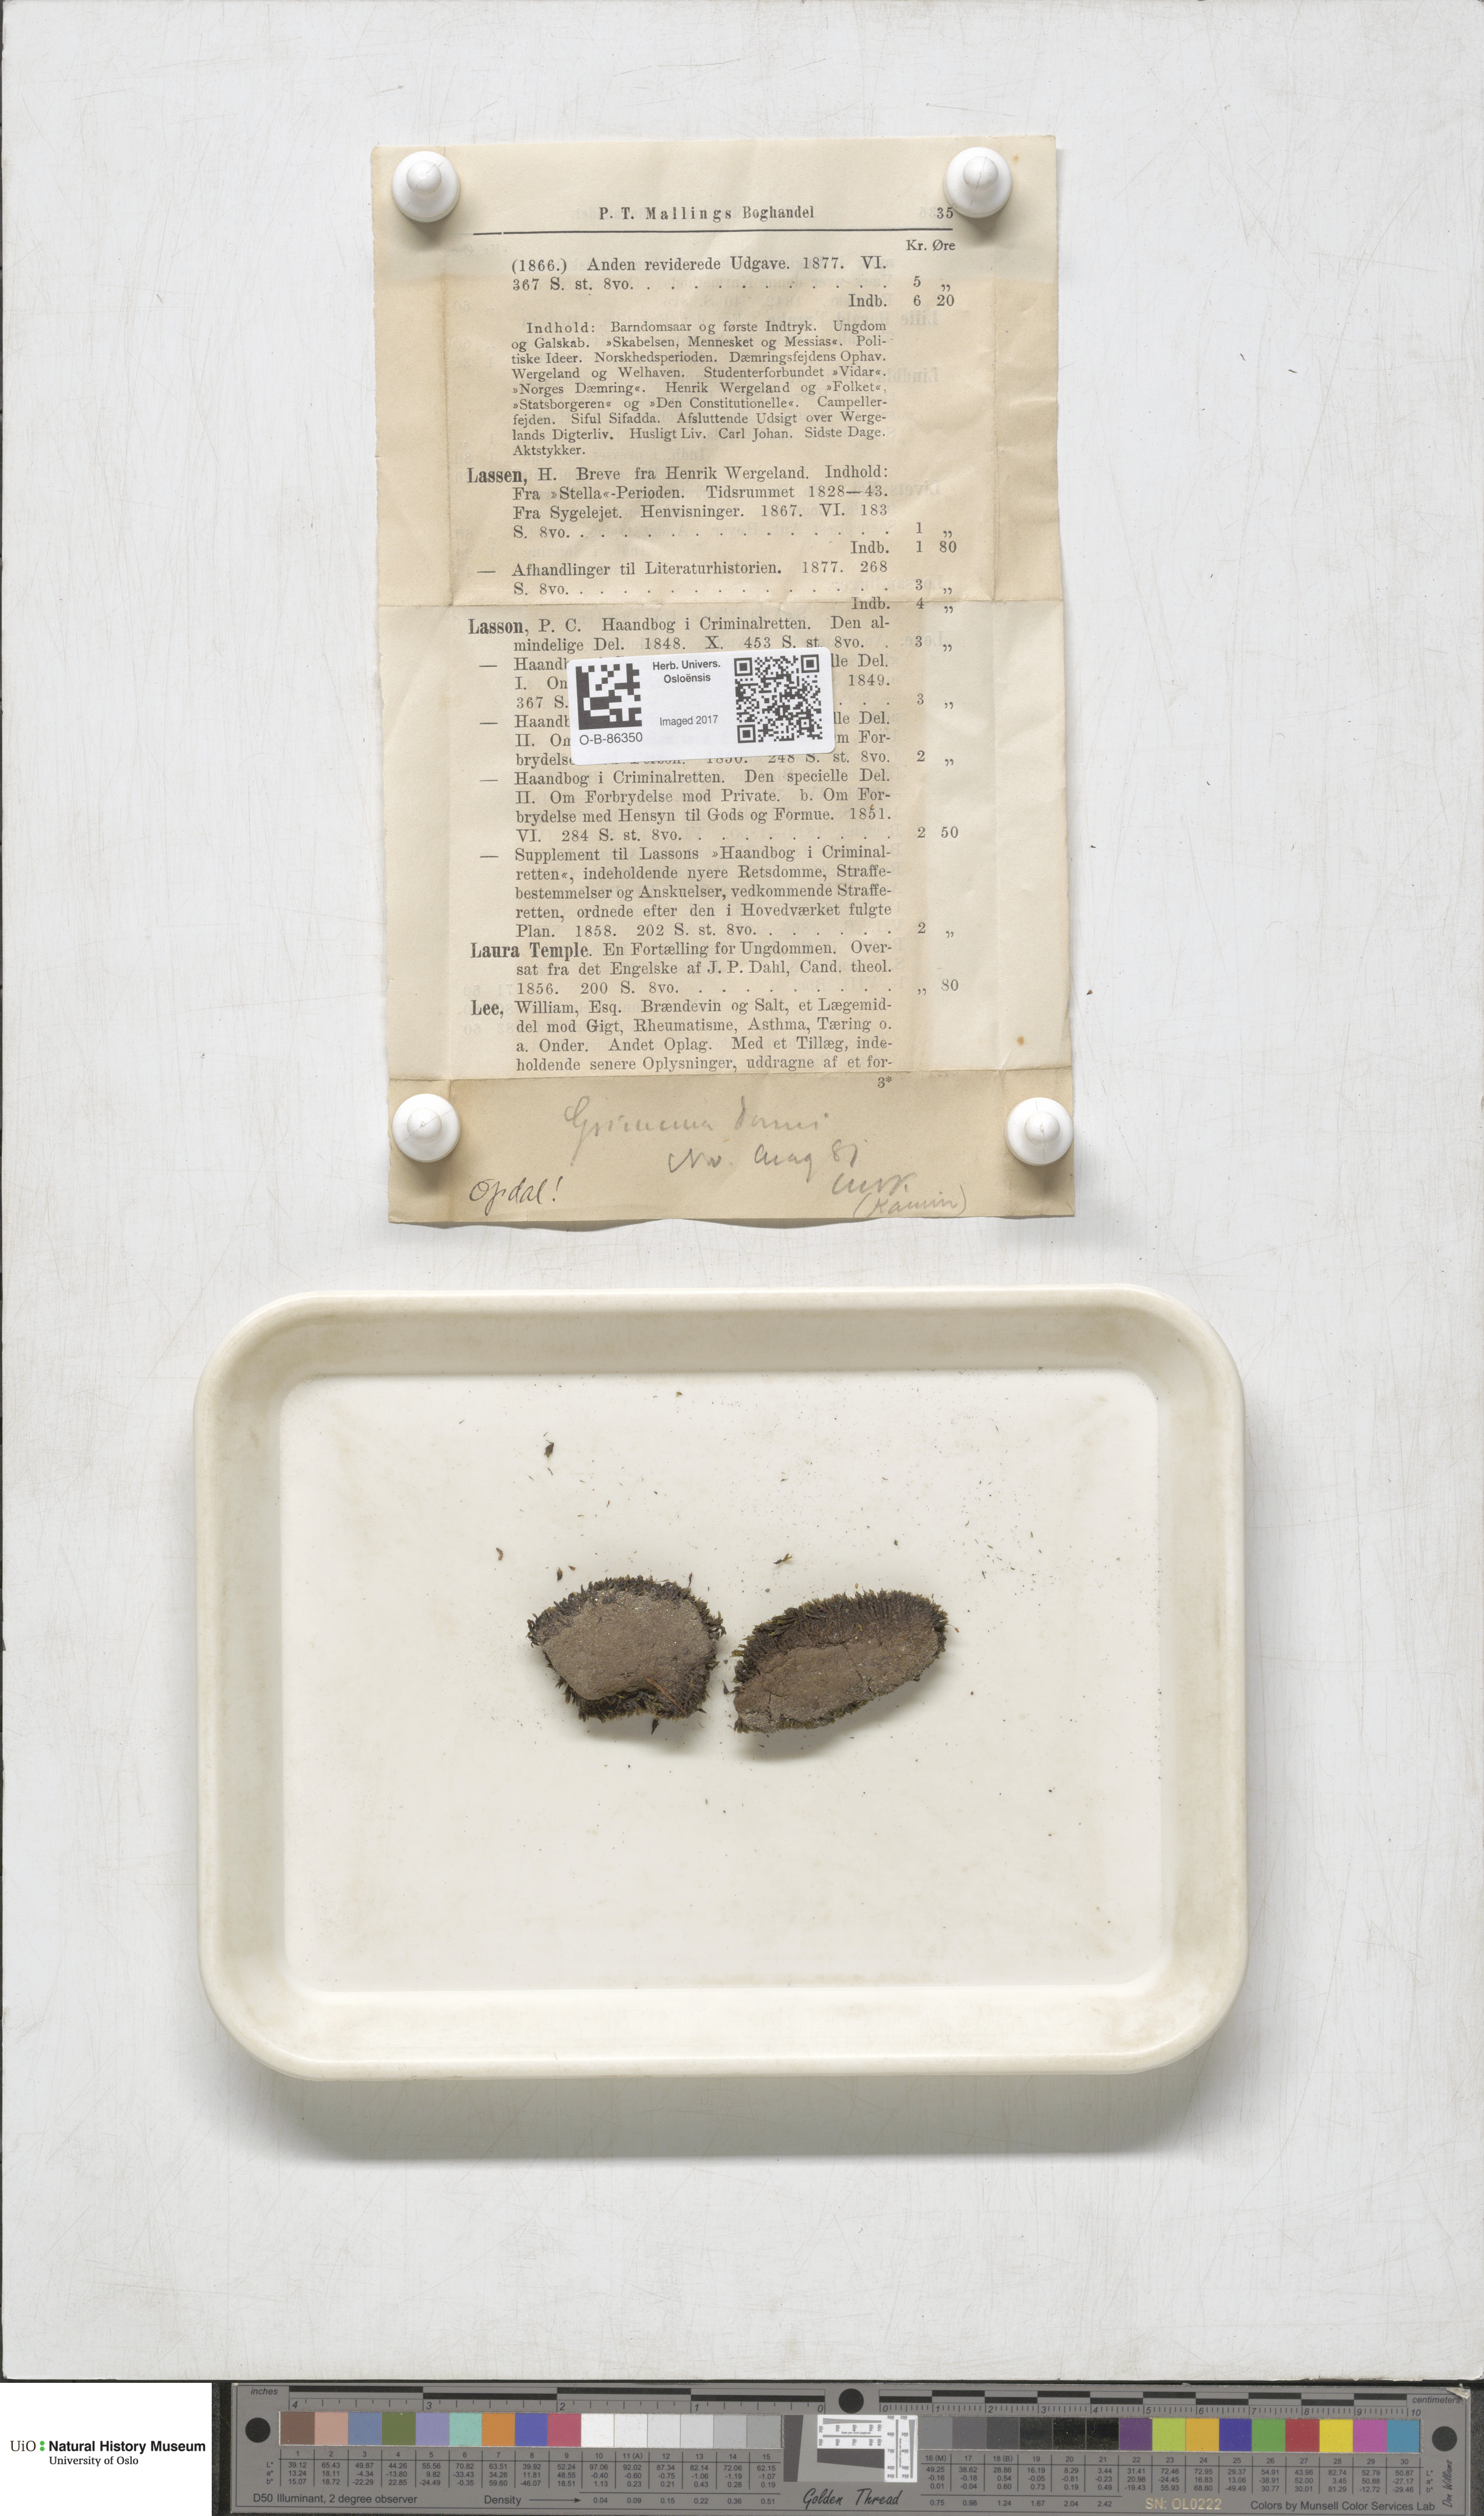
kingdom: Plantae
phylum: Bryophyta
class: Bryopsida
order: Grimmiales
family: Grimmiaceae
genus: Grimmia
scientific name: Grimmia donniana
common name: Donn's grimmia
